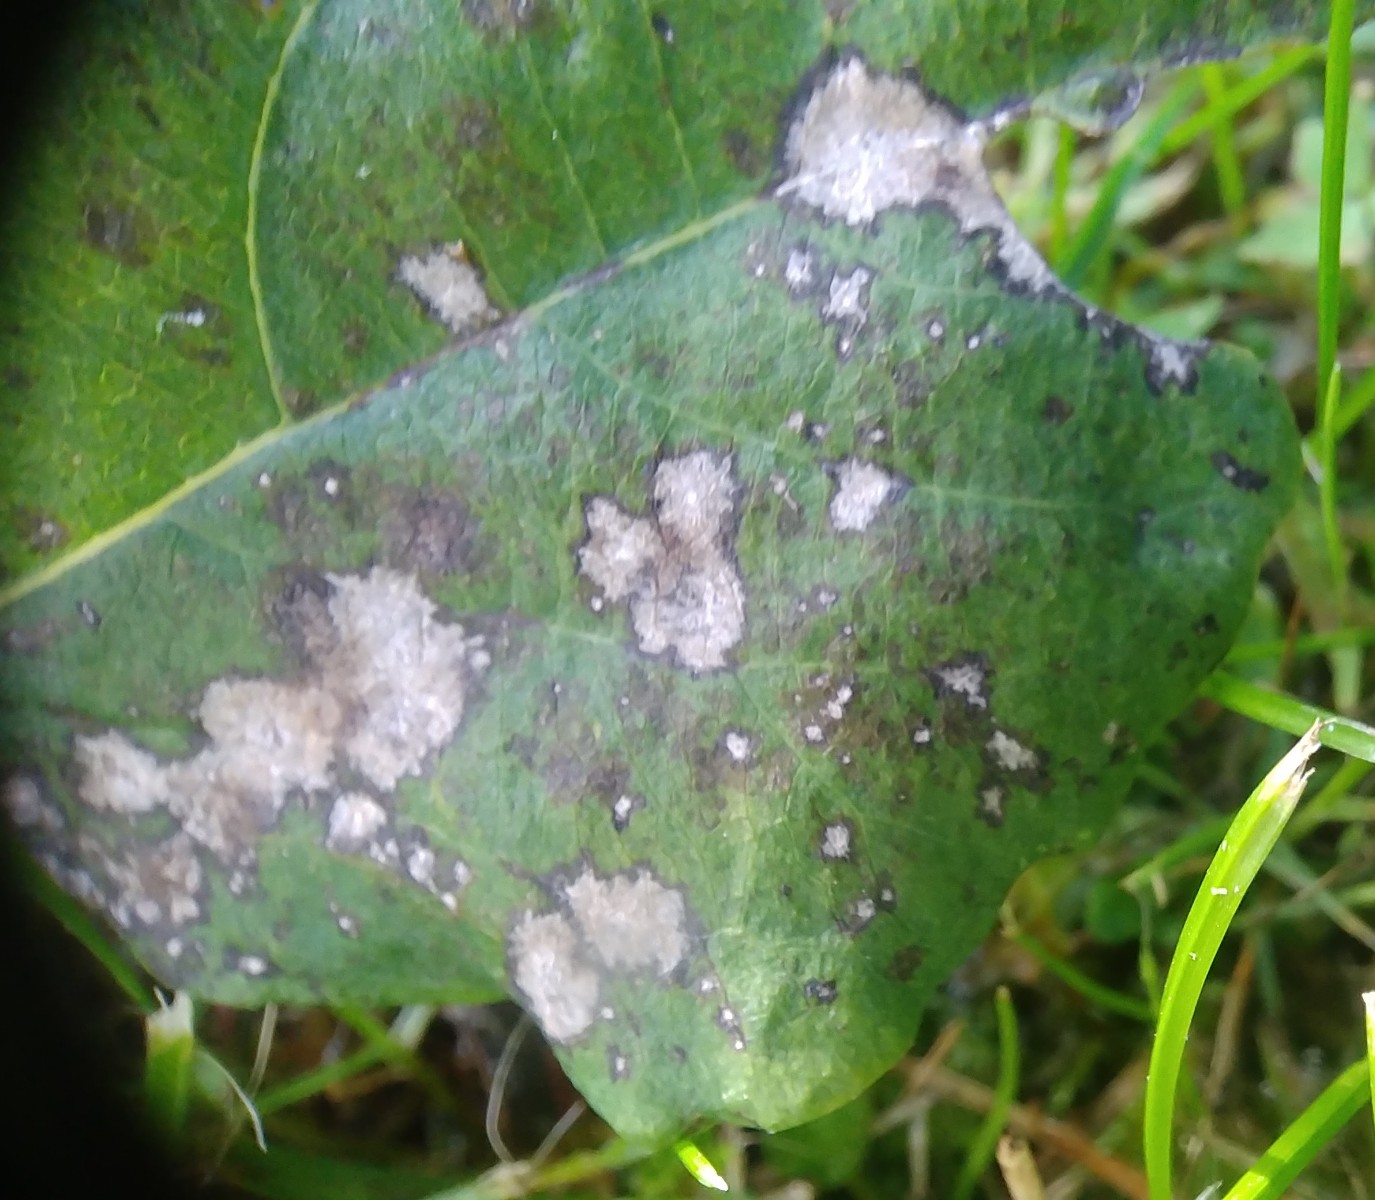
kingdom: Fungi
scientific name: Fungi
